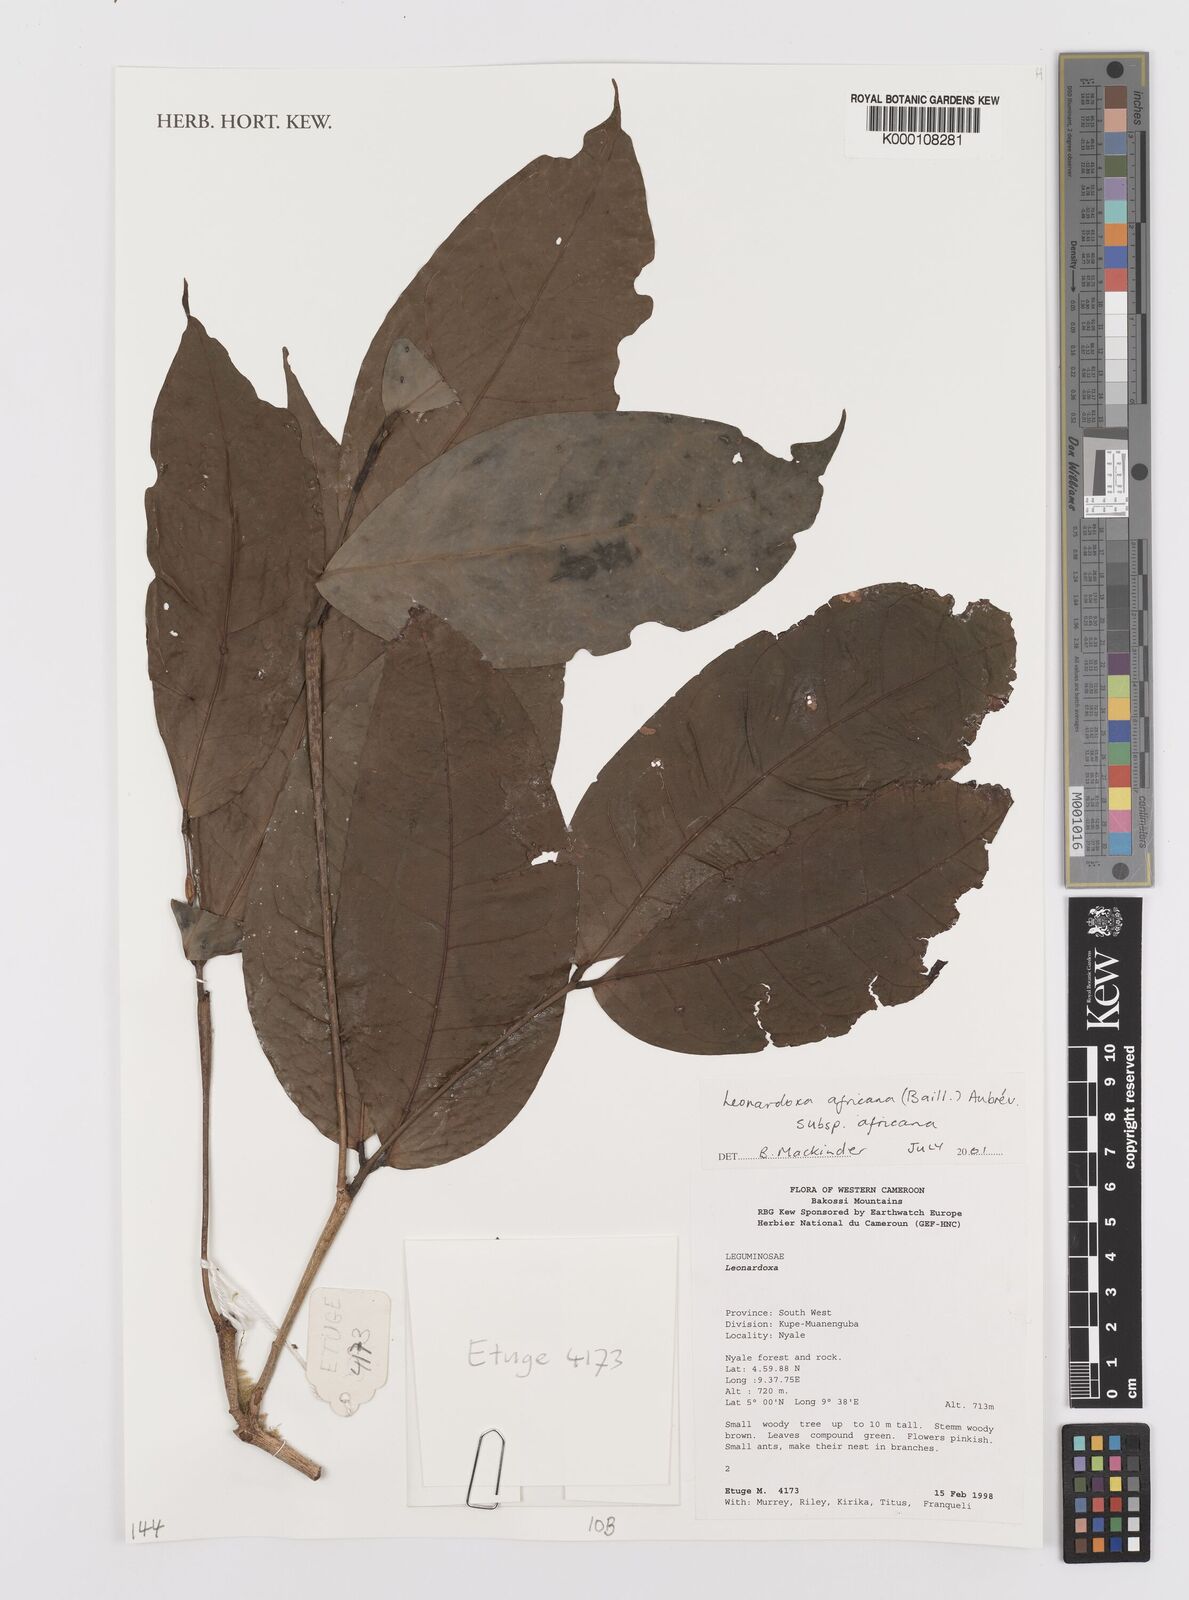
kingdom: Plantae
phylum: Tracheophyta
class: Magnoliopsida
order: Fabales
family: Fabaceae
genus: Leonardoxa
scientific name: Leonardoxa
